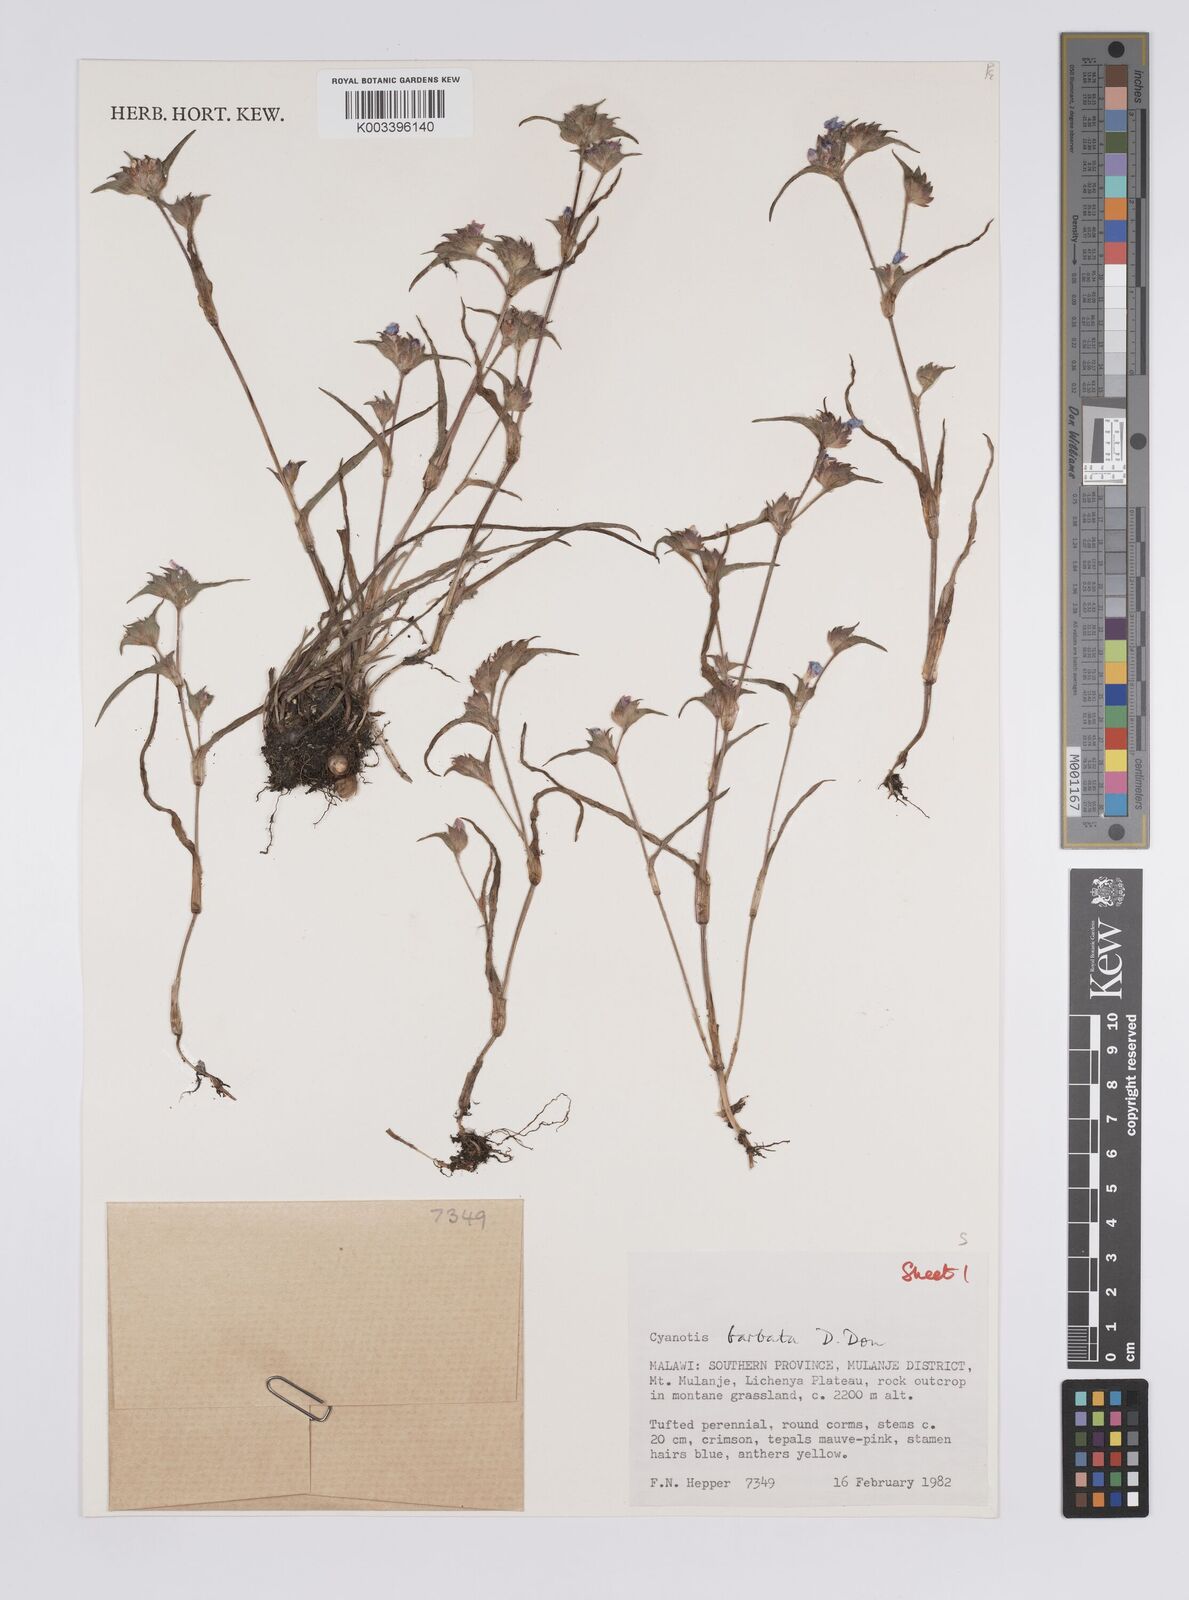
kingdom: Plantae
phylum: Tracheophyta
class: Liliopsida
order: Commelinales
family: Commelinaceae
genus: Cyanotis
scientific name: Cyanotis vaga
